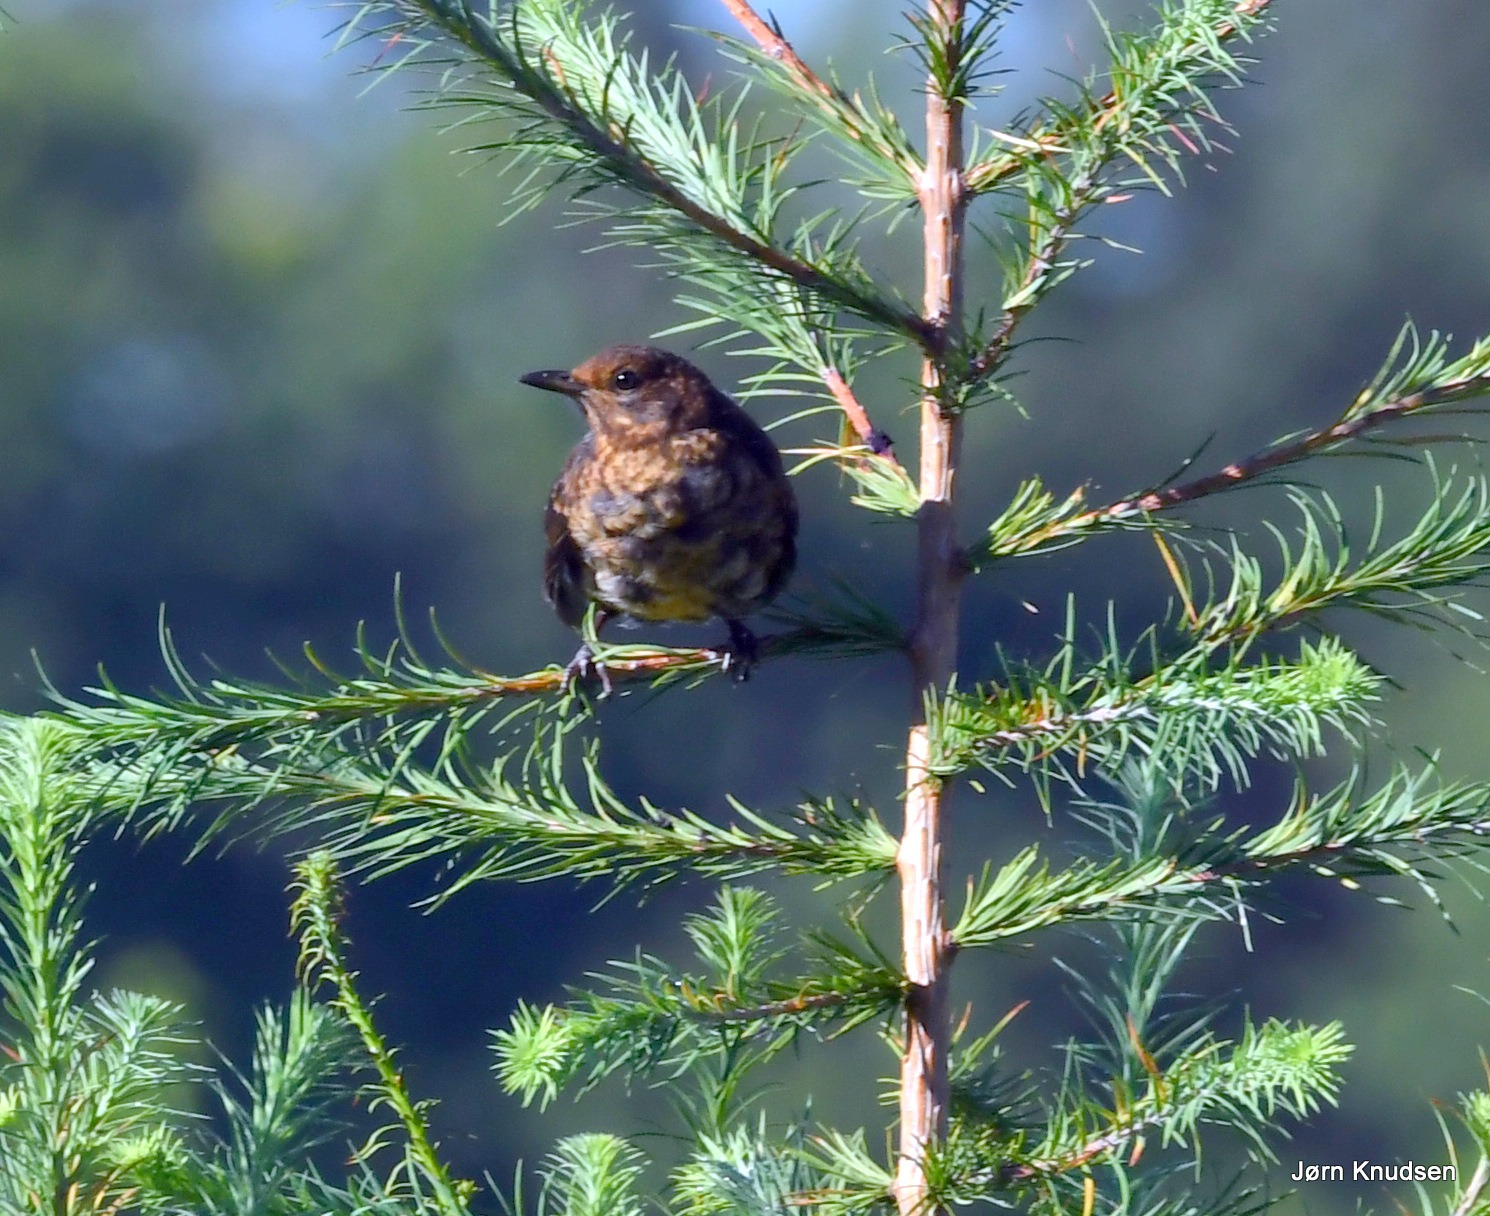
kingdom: Animalia
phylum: Chordata
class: Aves
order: Passeriformes
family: Turdidae
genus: Turdus
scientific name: Turdus merula
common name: Solsort
